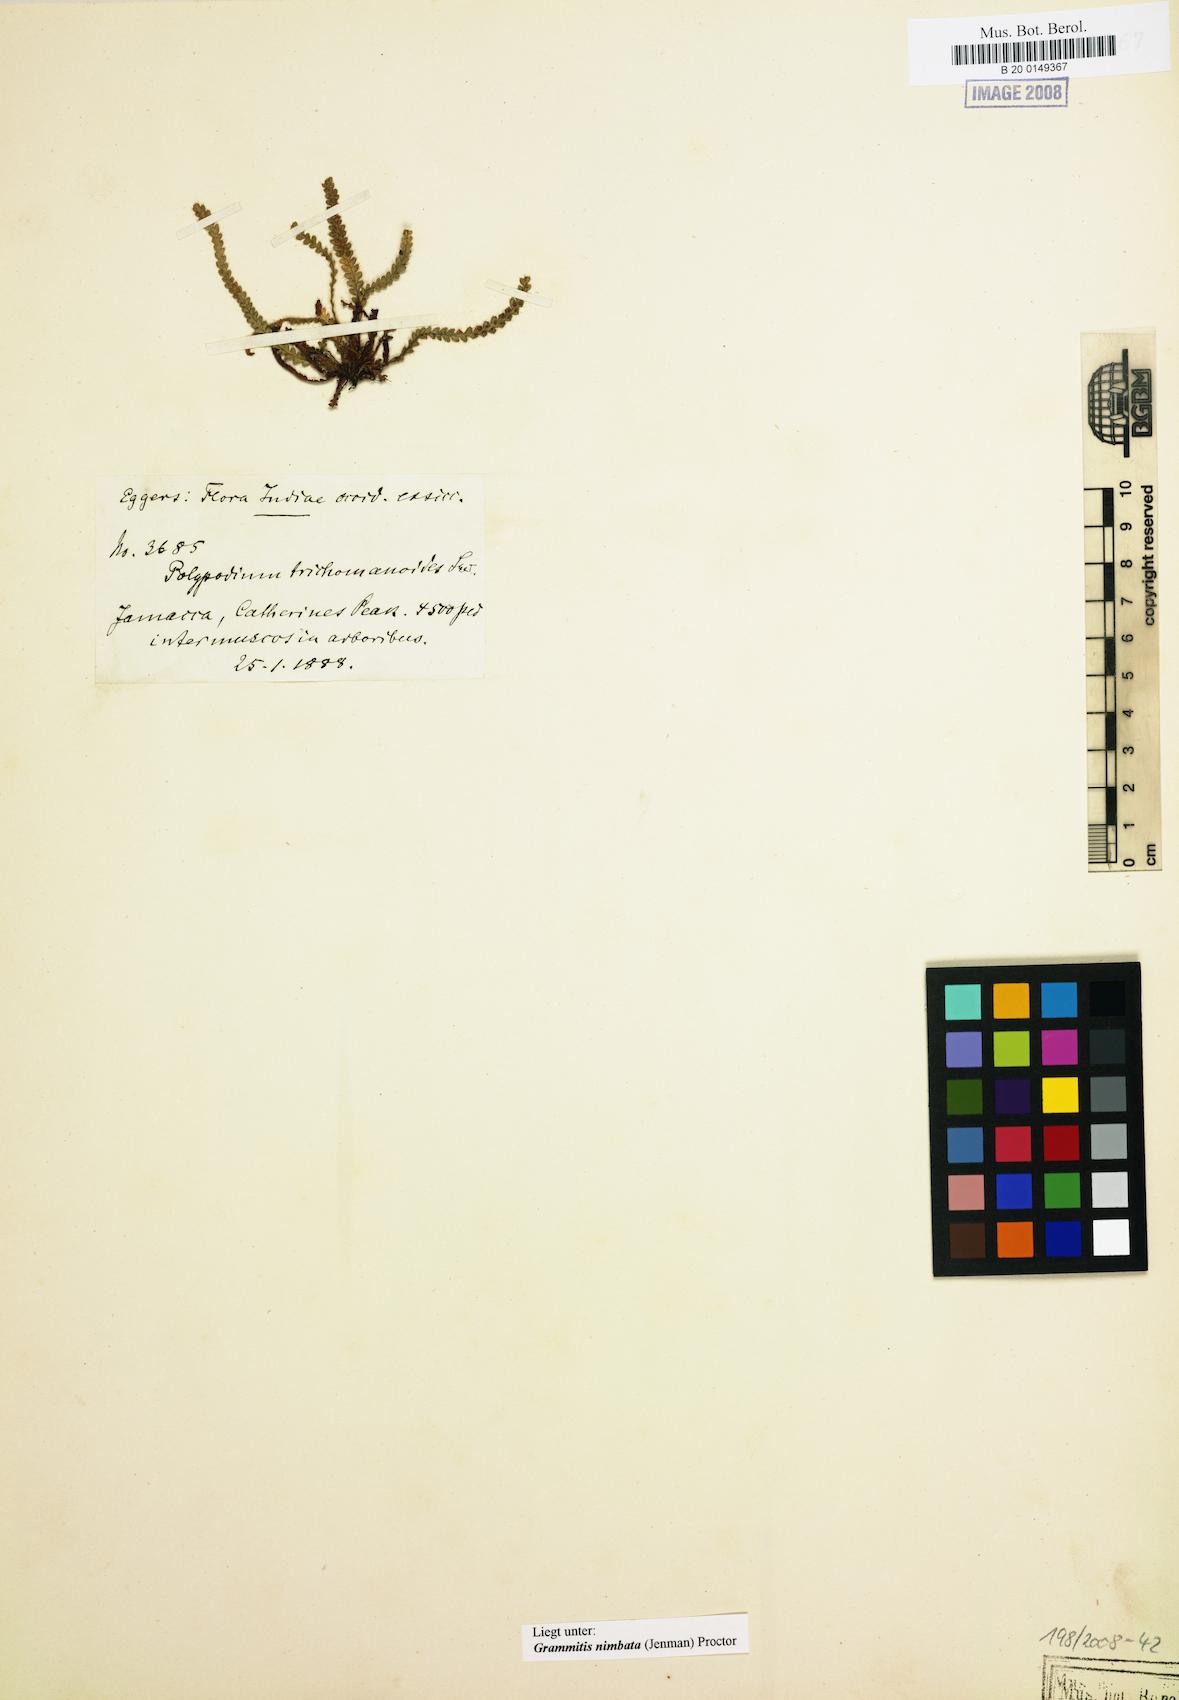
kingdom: Plantae
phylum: Tracheophyta
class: Polypodiopsida
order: Polypodiales
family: Polypodiaceae
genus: Moranopteris
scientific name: Moranopteris nimbata
